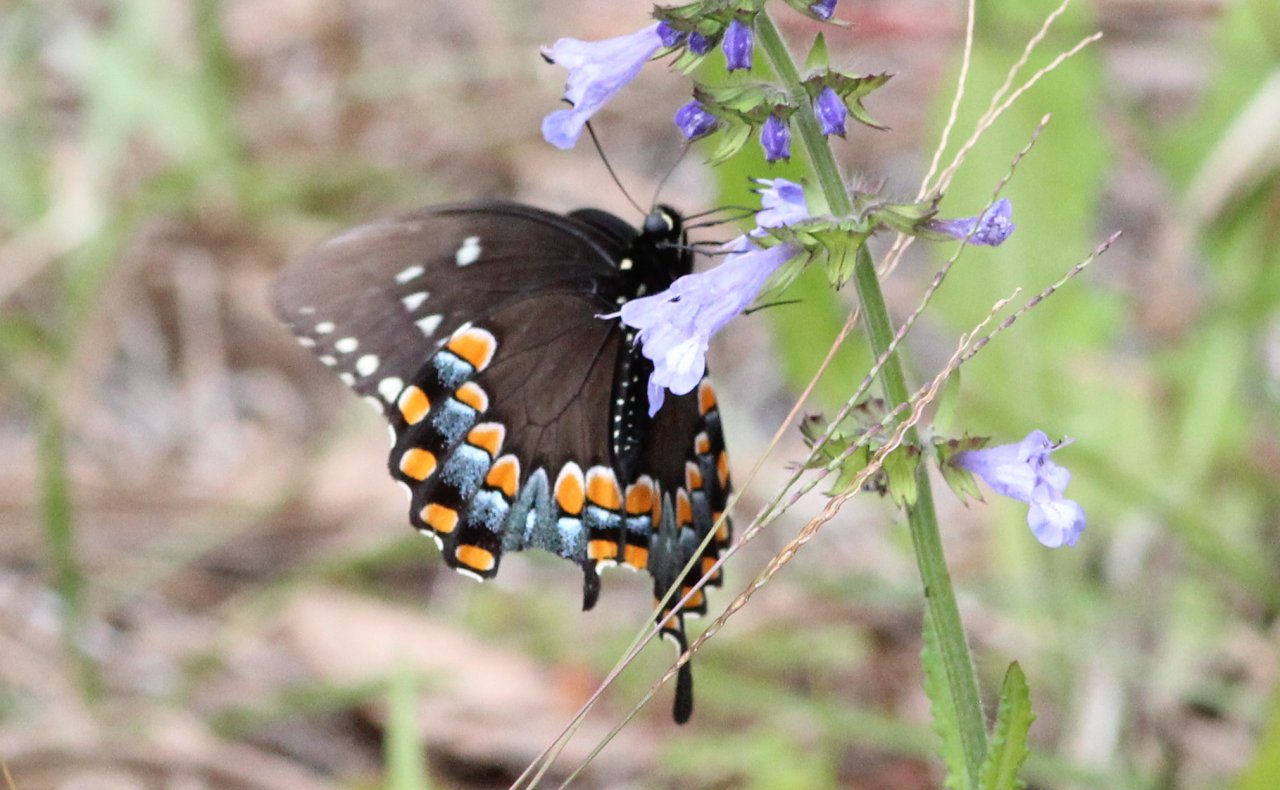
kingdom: Animalia
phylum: Arthropoda
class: Insecta
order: Lepidoptera
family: Papilionidae
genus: Pterourus
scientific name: Pterourus troilus
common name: Spicebush Swallowtail
